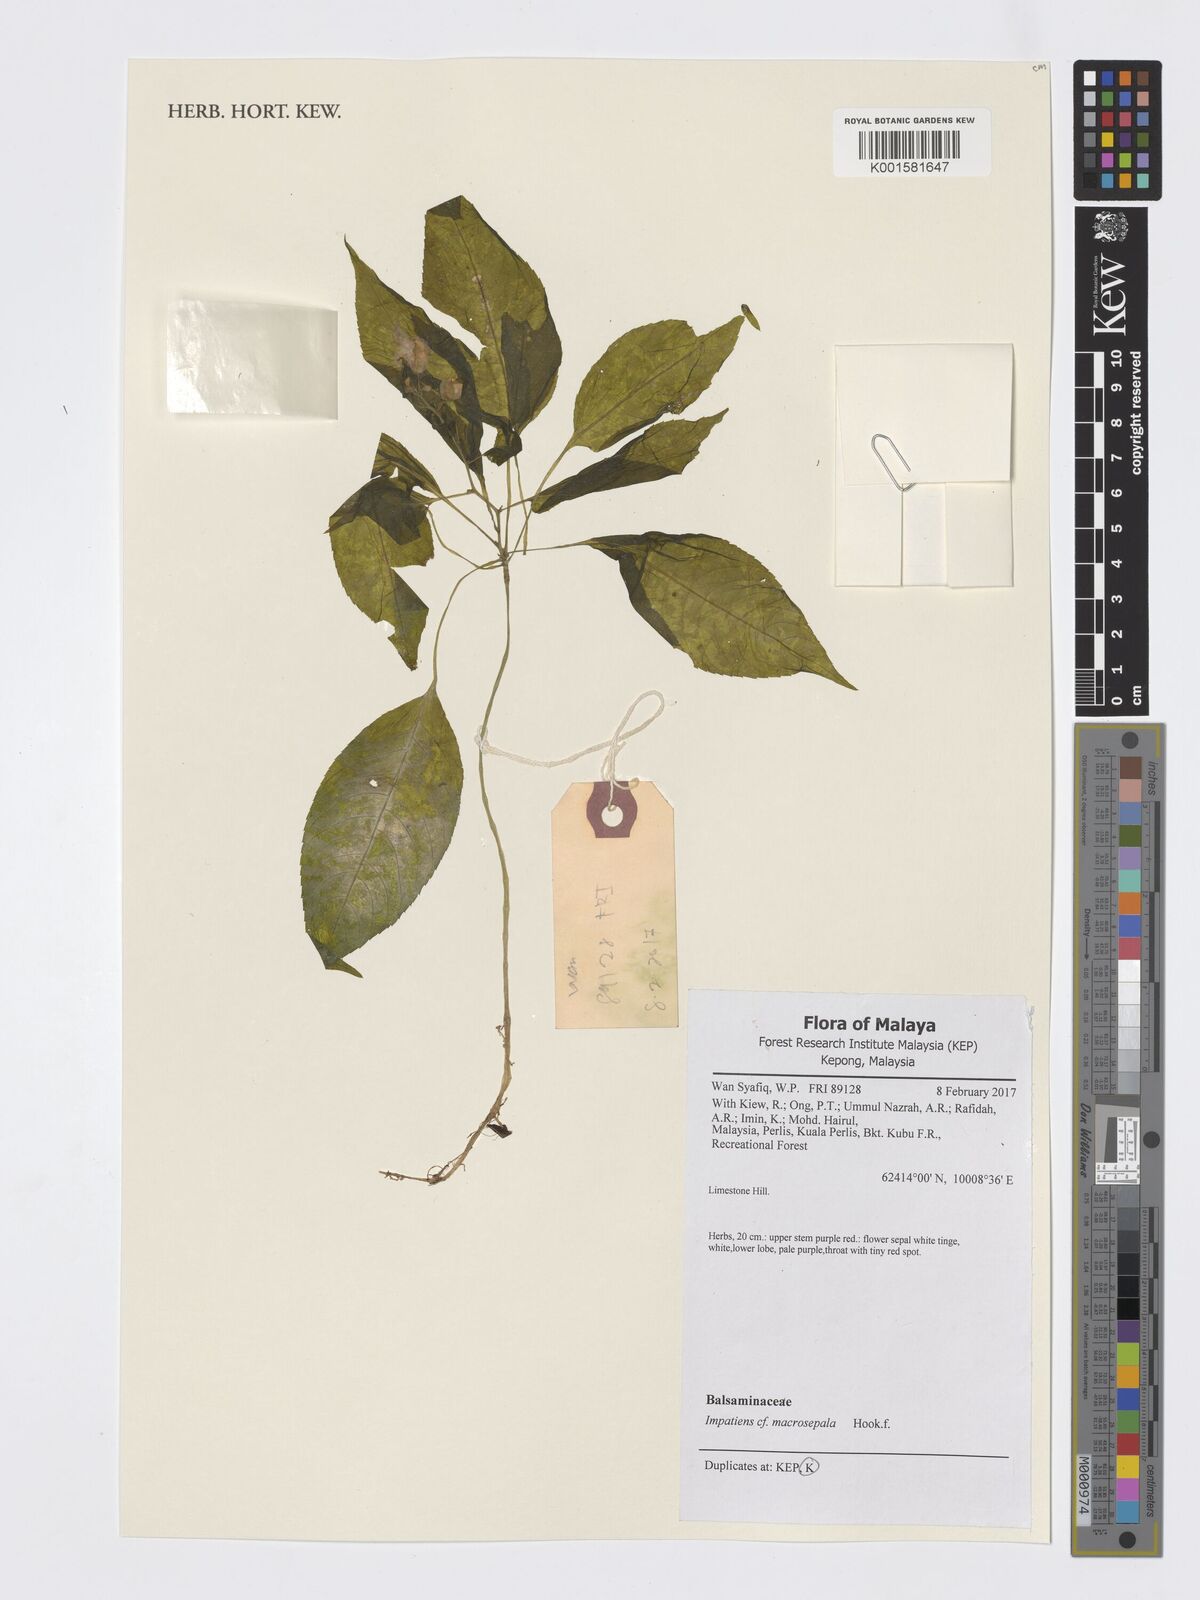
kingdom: Plantae
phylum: Tracheophyta
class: Magnoliopsida
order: Ericales
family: Balsaminaceae
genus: Impatiens
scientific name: Impatiens macrosepala
